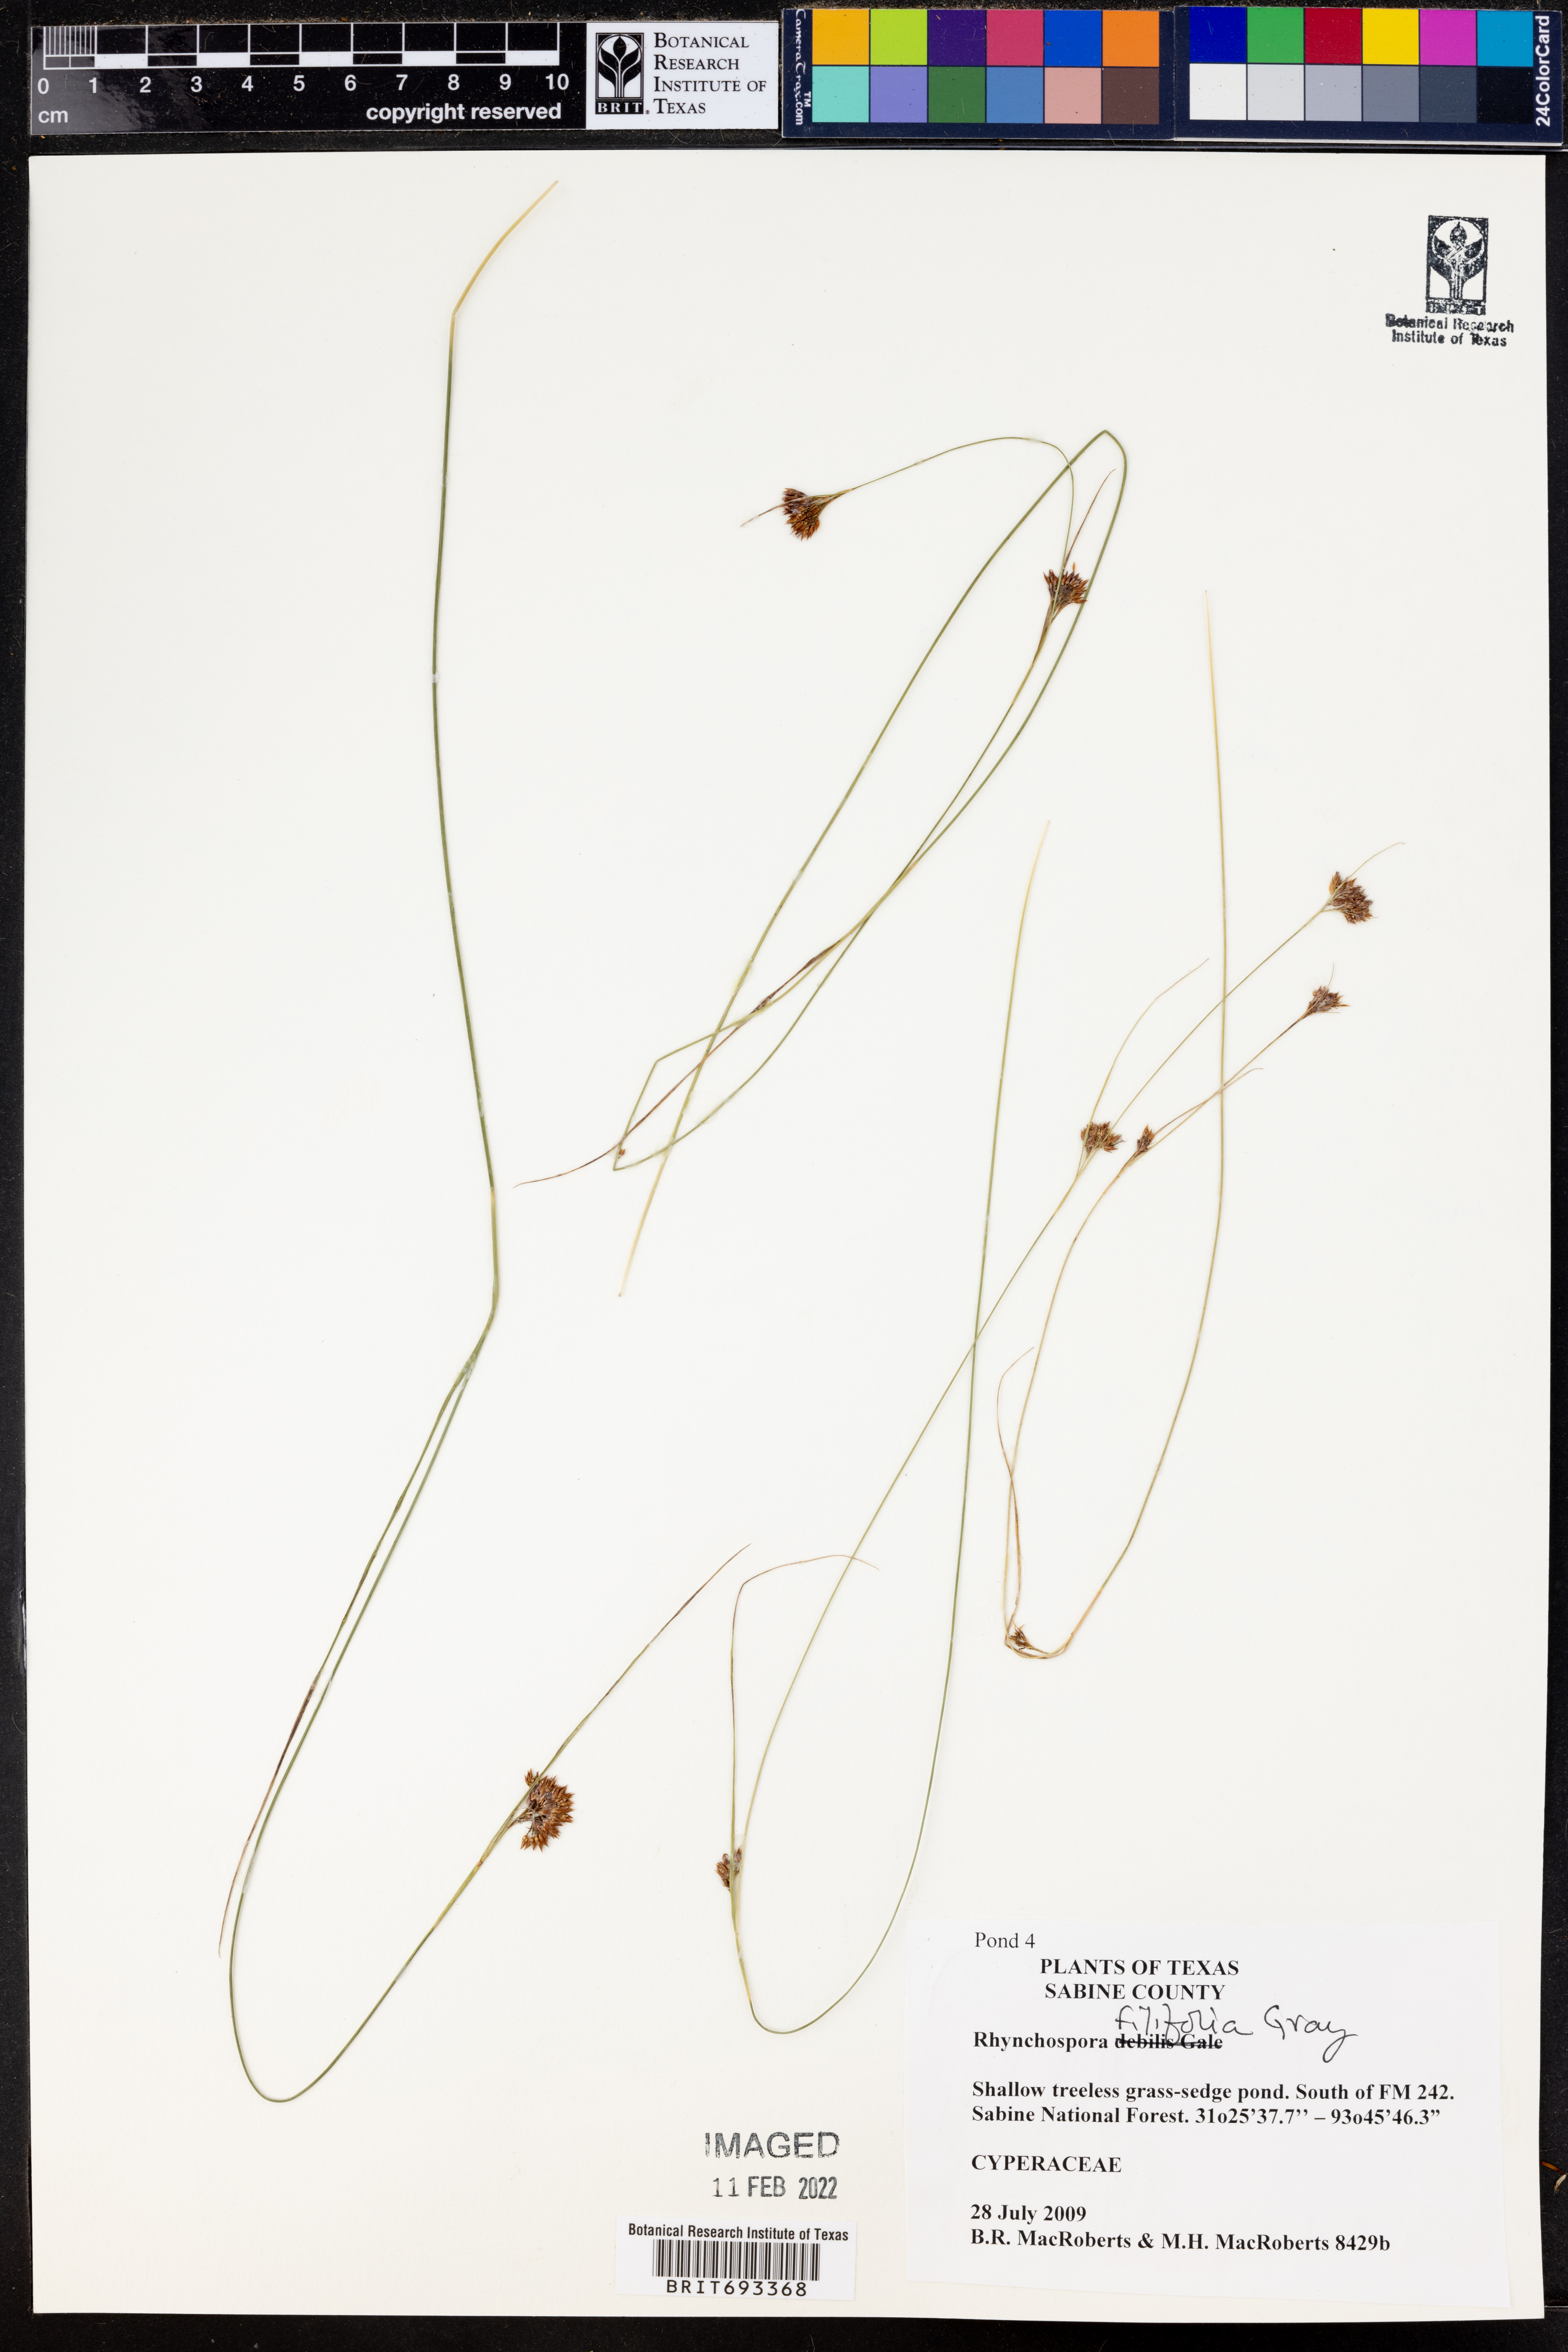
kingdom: Plantae
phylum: Tracheophyta
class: Liliopsida
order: Poales
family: Cyperaceae
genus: Rhynchospora
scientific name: Rhynchospora filifolia
